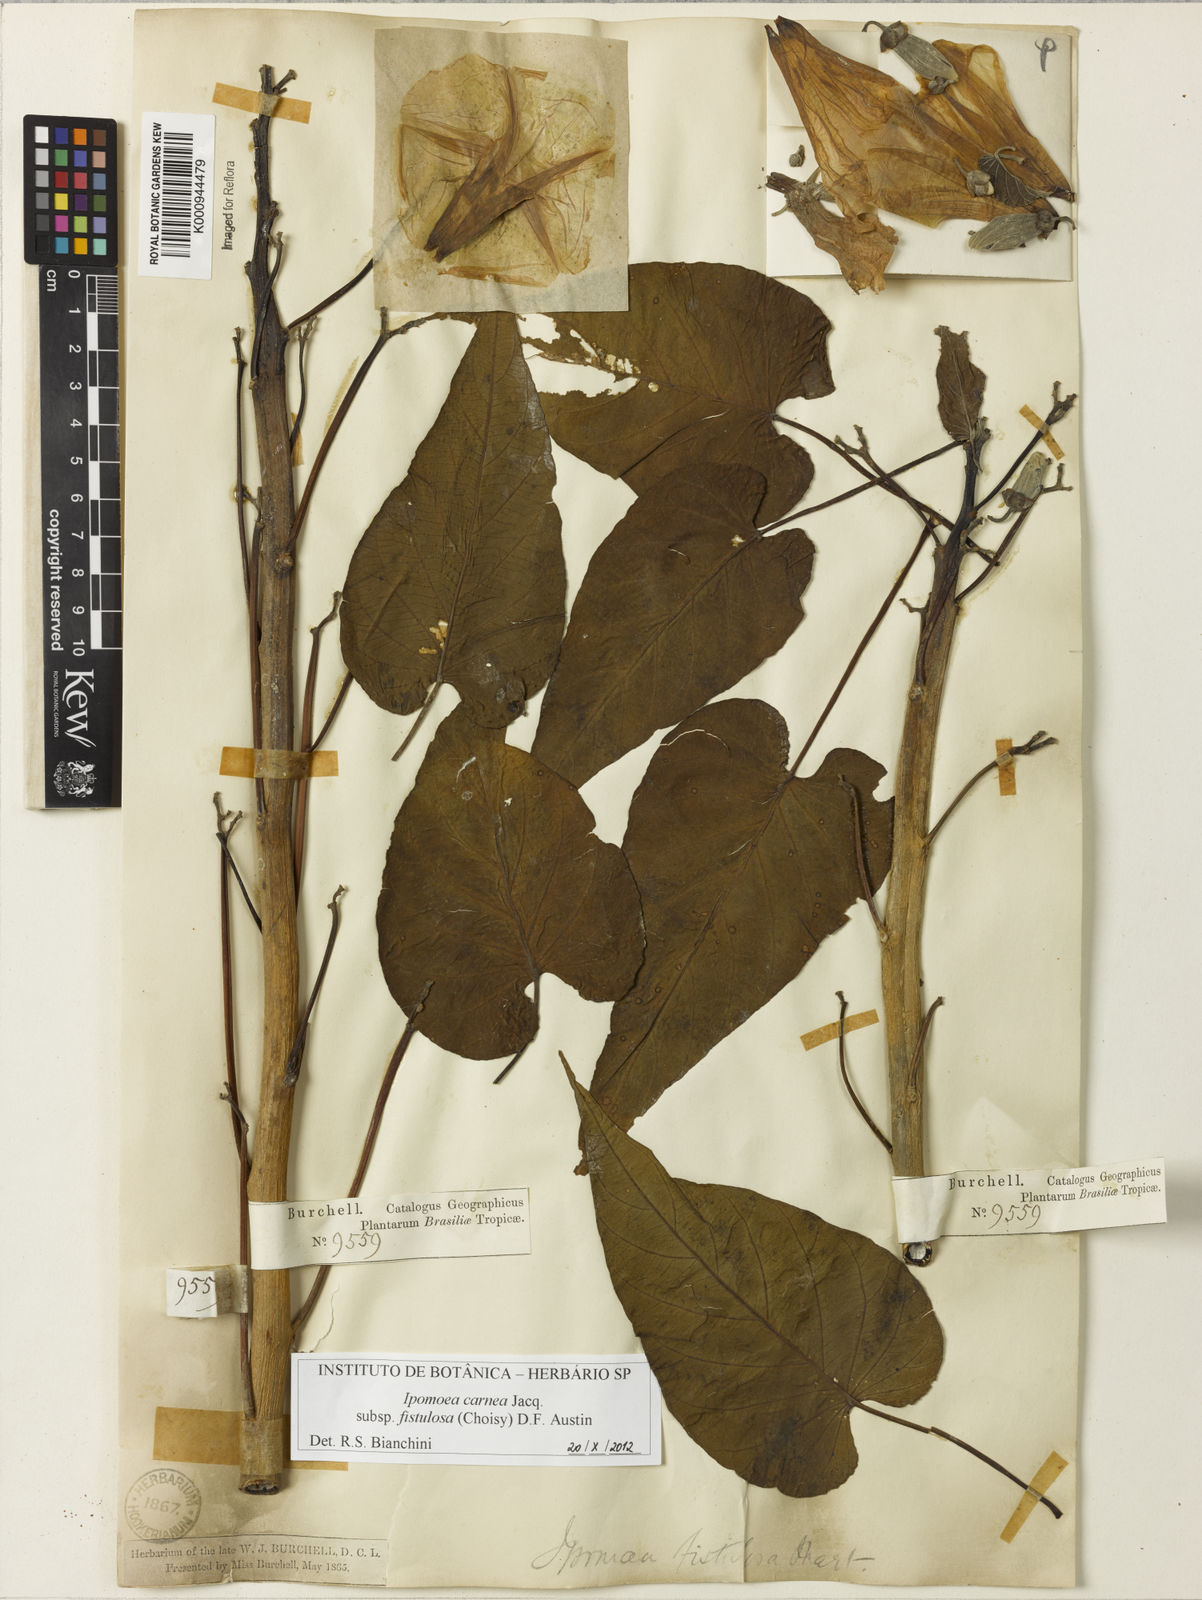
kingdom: Plantae
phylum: Tracheophyta
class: Magnoliopsida
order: Solanales
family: Convolvulaceae
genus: Ipomoea
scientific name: Ipomoea
